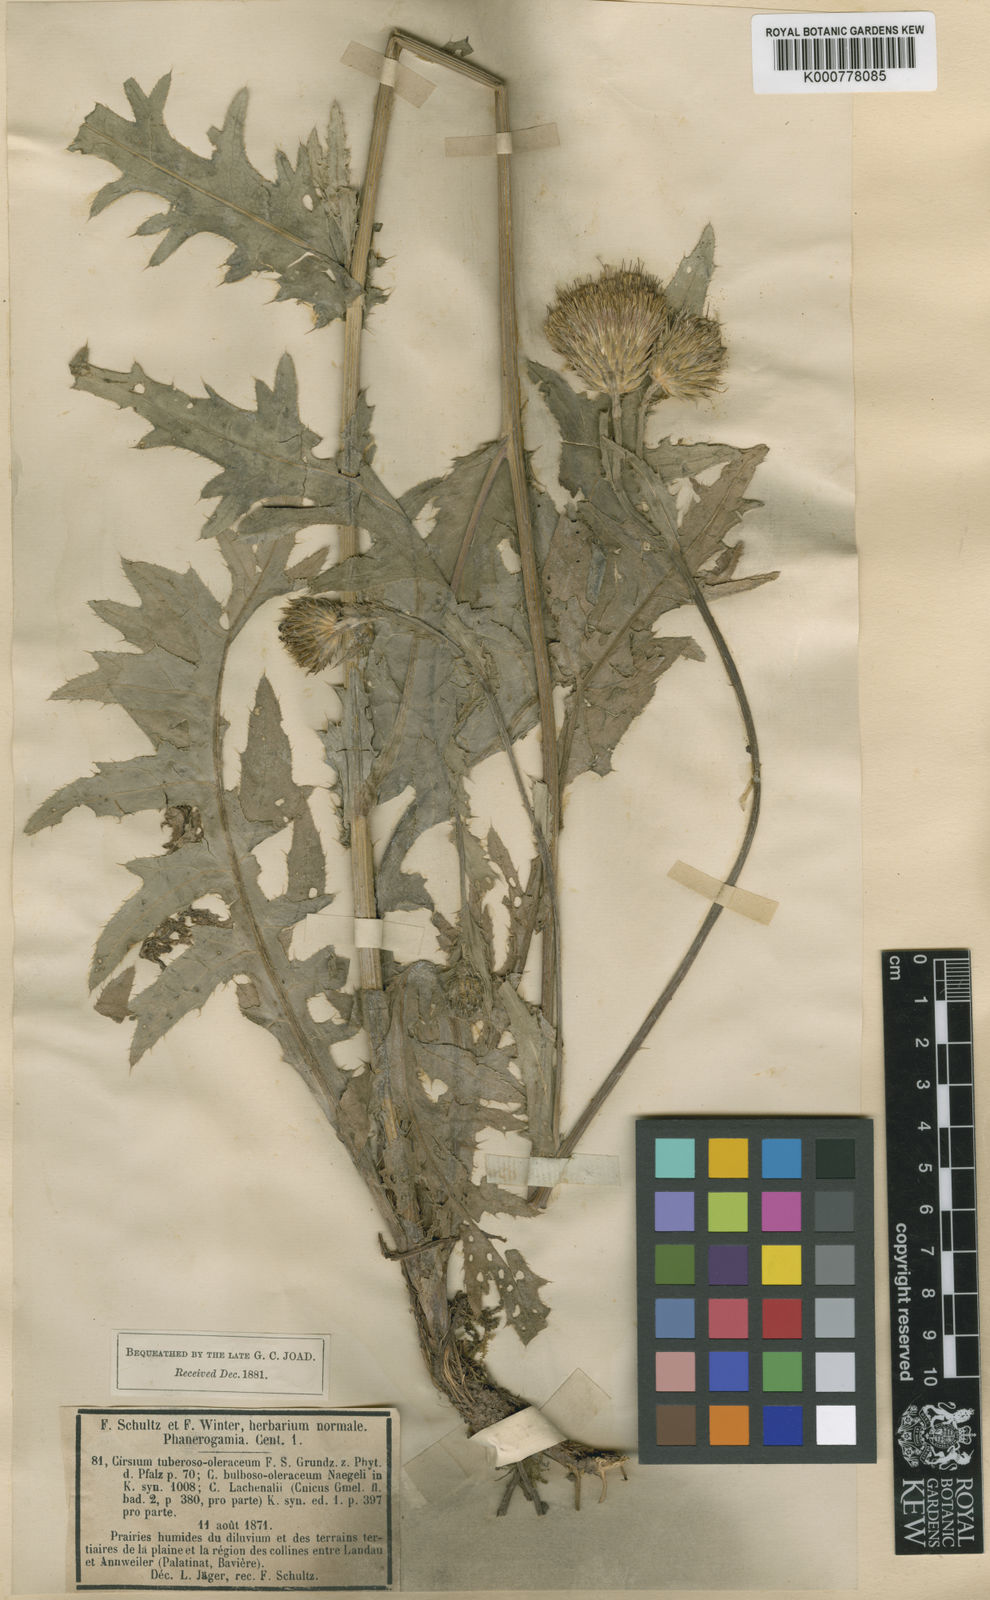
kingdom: Plantae
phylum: Tracheophyta
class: Magnoliopsida
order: Asterales
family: Asteraceae
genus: Cirsium
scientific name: Cirsium oleraceum
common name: Cabbage thistle
